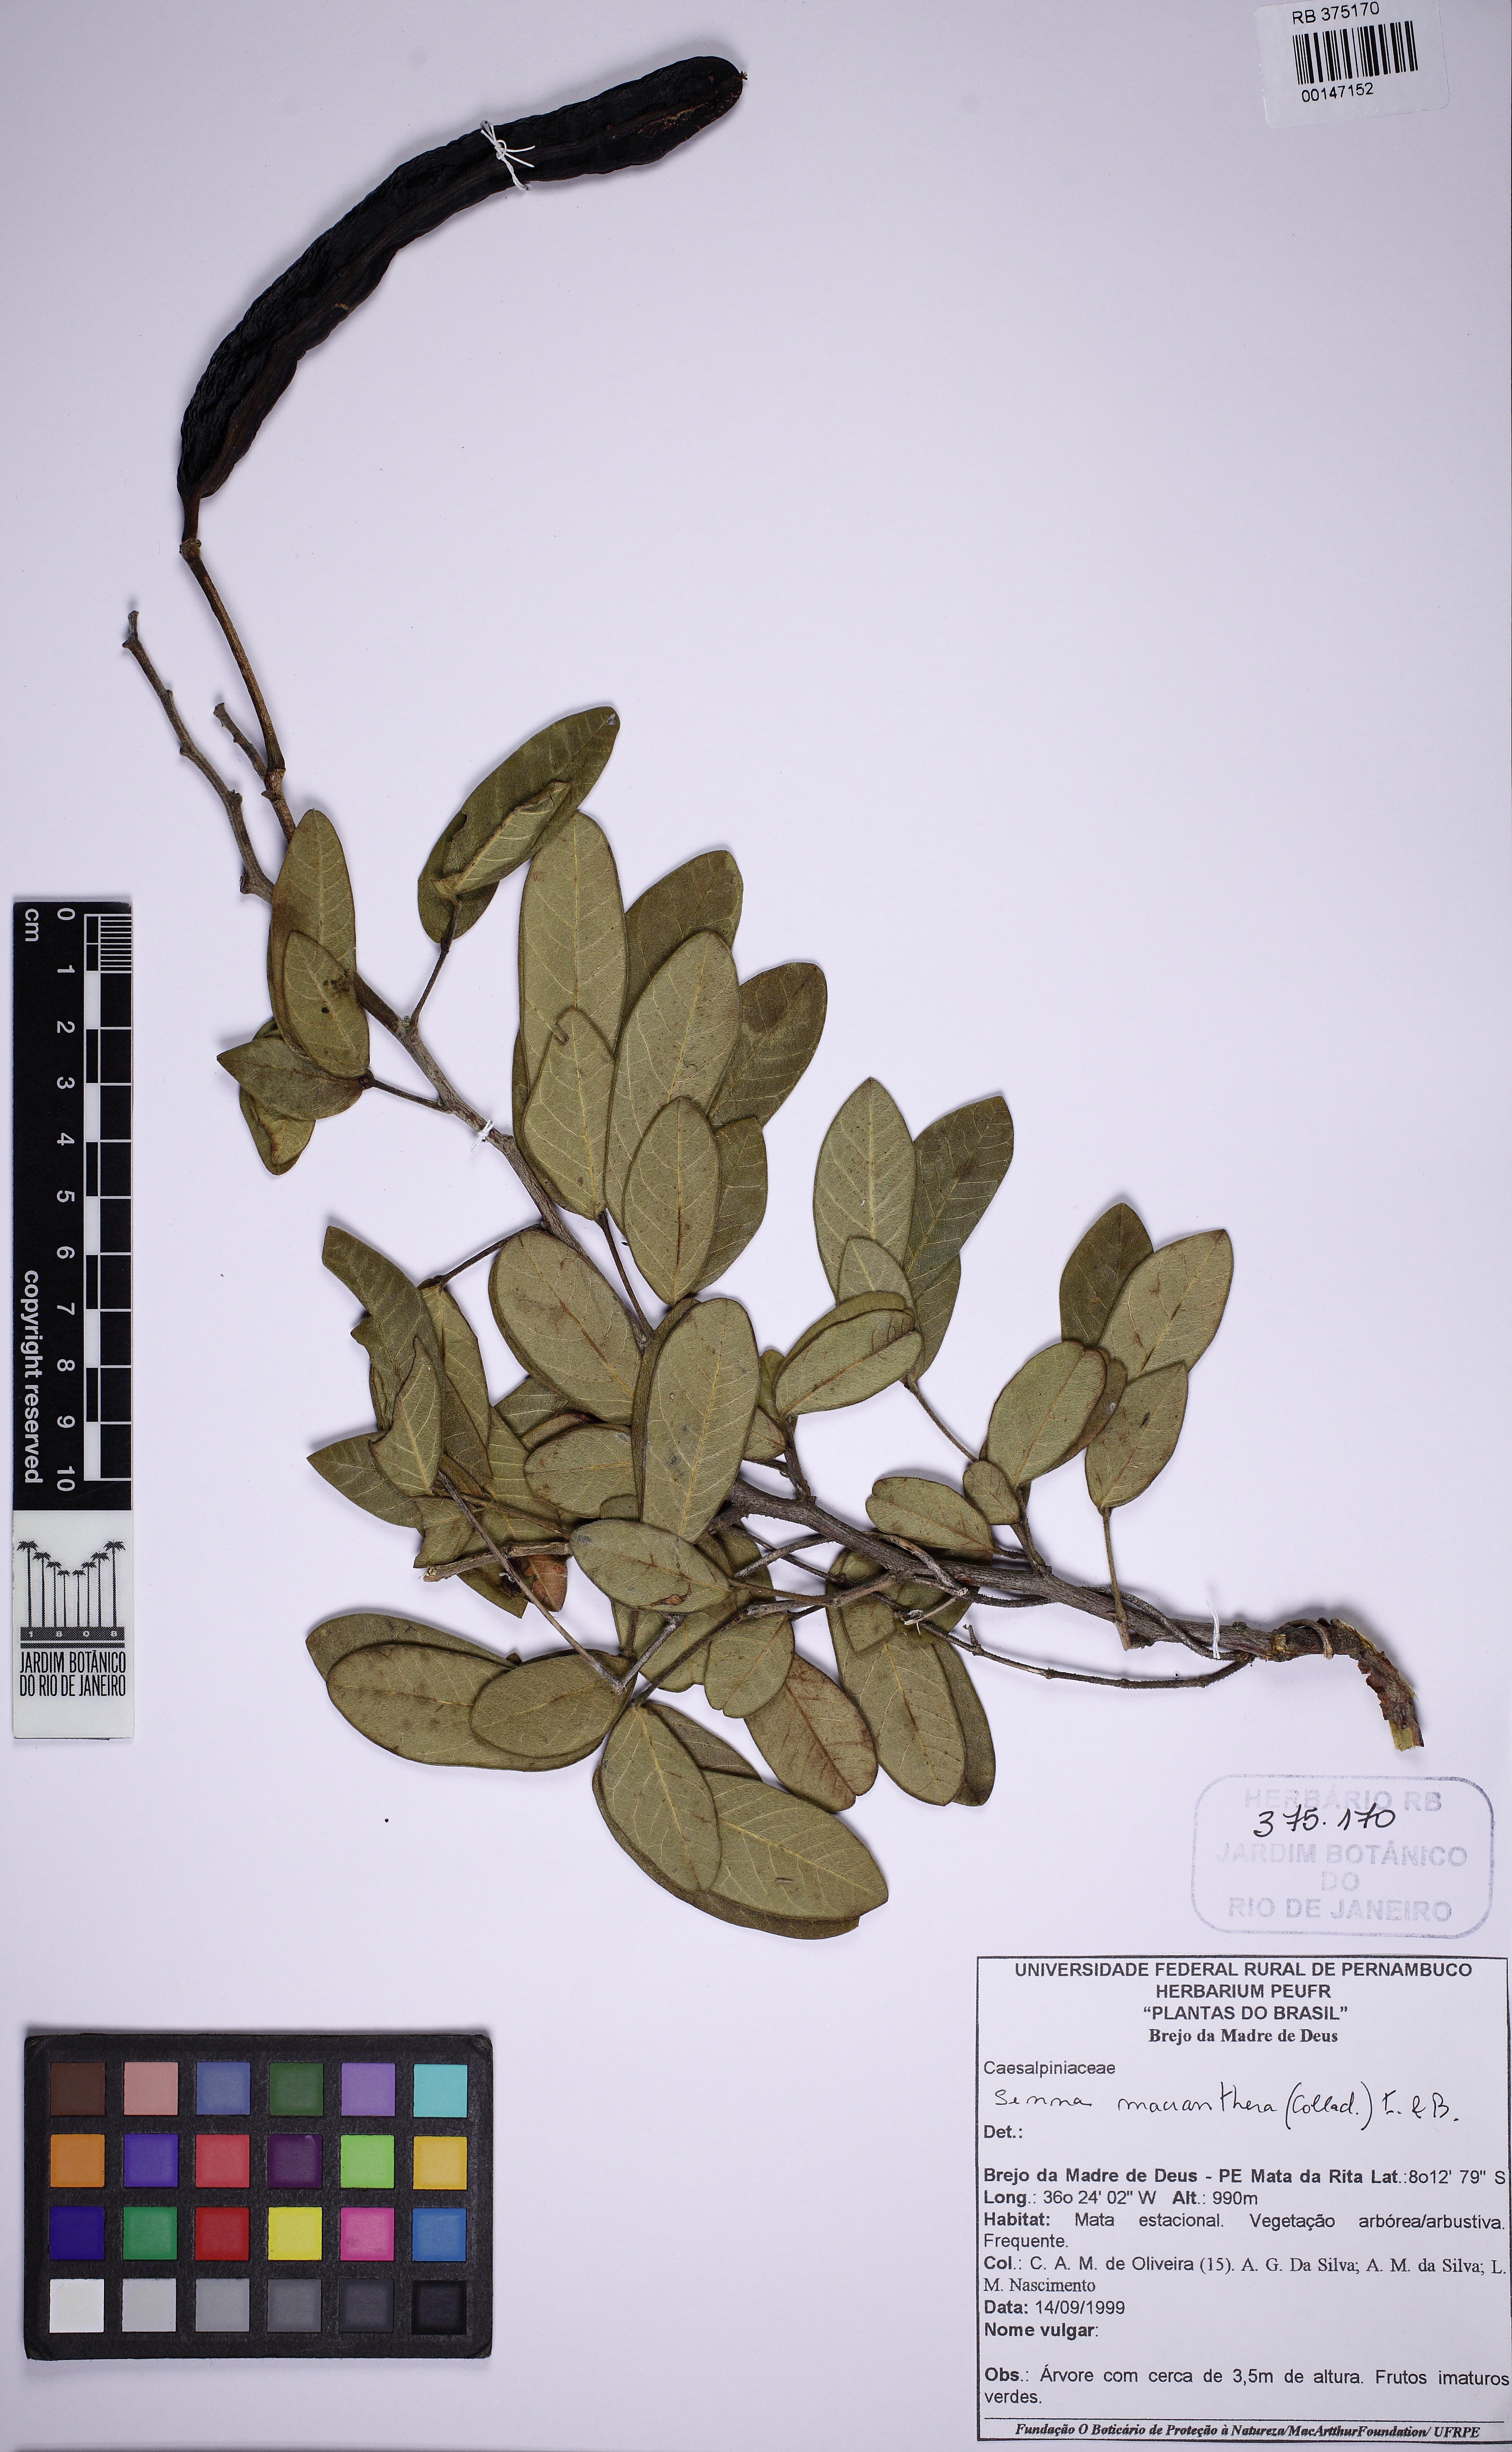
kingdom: Plantae
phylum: Tracheophyta
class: Magnoliopsida
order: Fabales
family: Fabaceae
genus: Senna
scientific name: Senna macranthera
